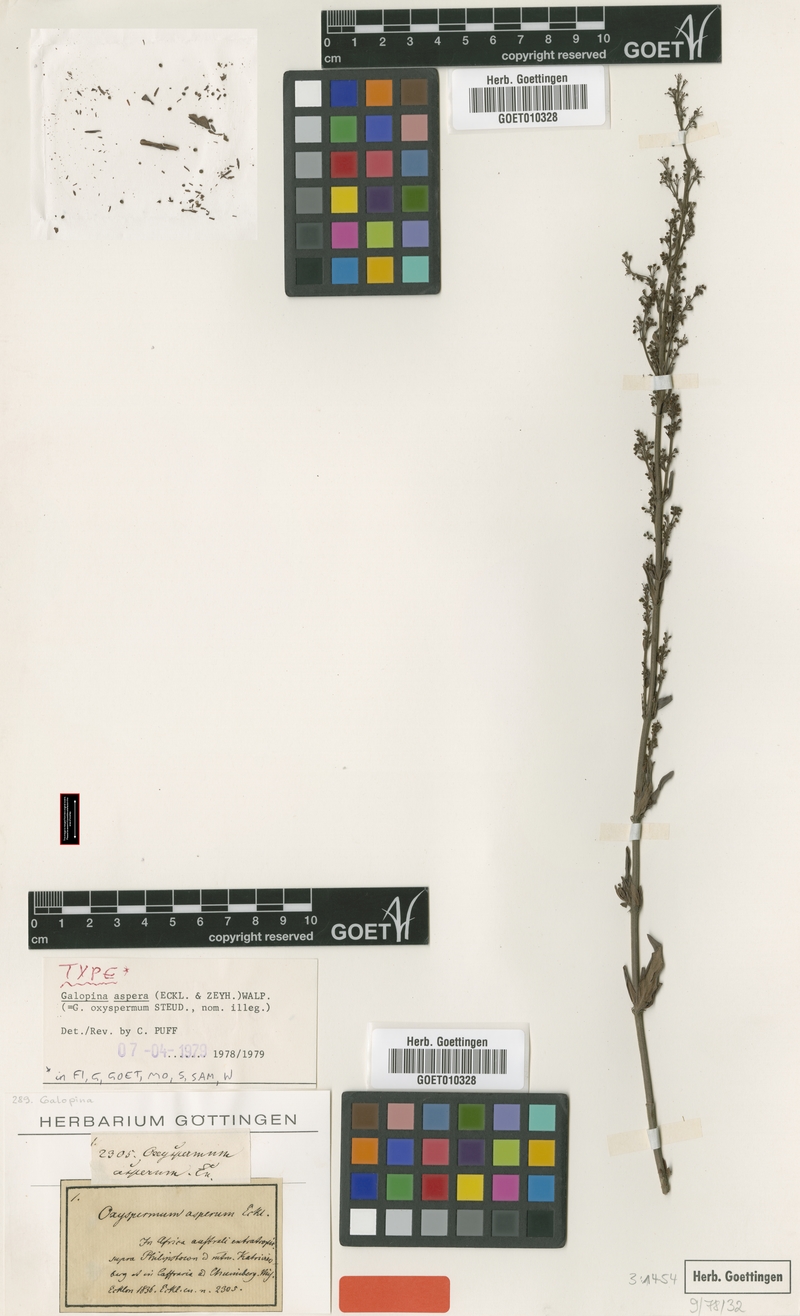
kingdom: Plantae
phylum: Tracheophyta
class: Magnoliopsida
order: Gentianales
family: Rubiaceae
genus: Galopina
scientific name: Galopina aspera
